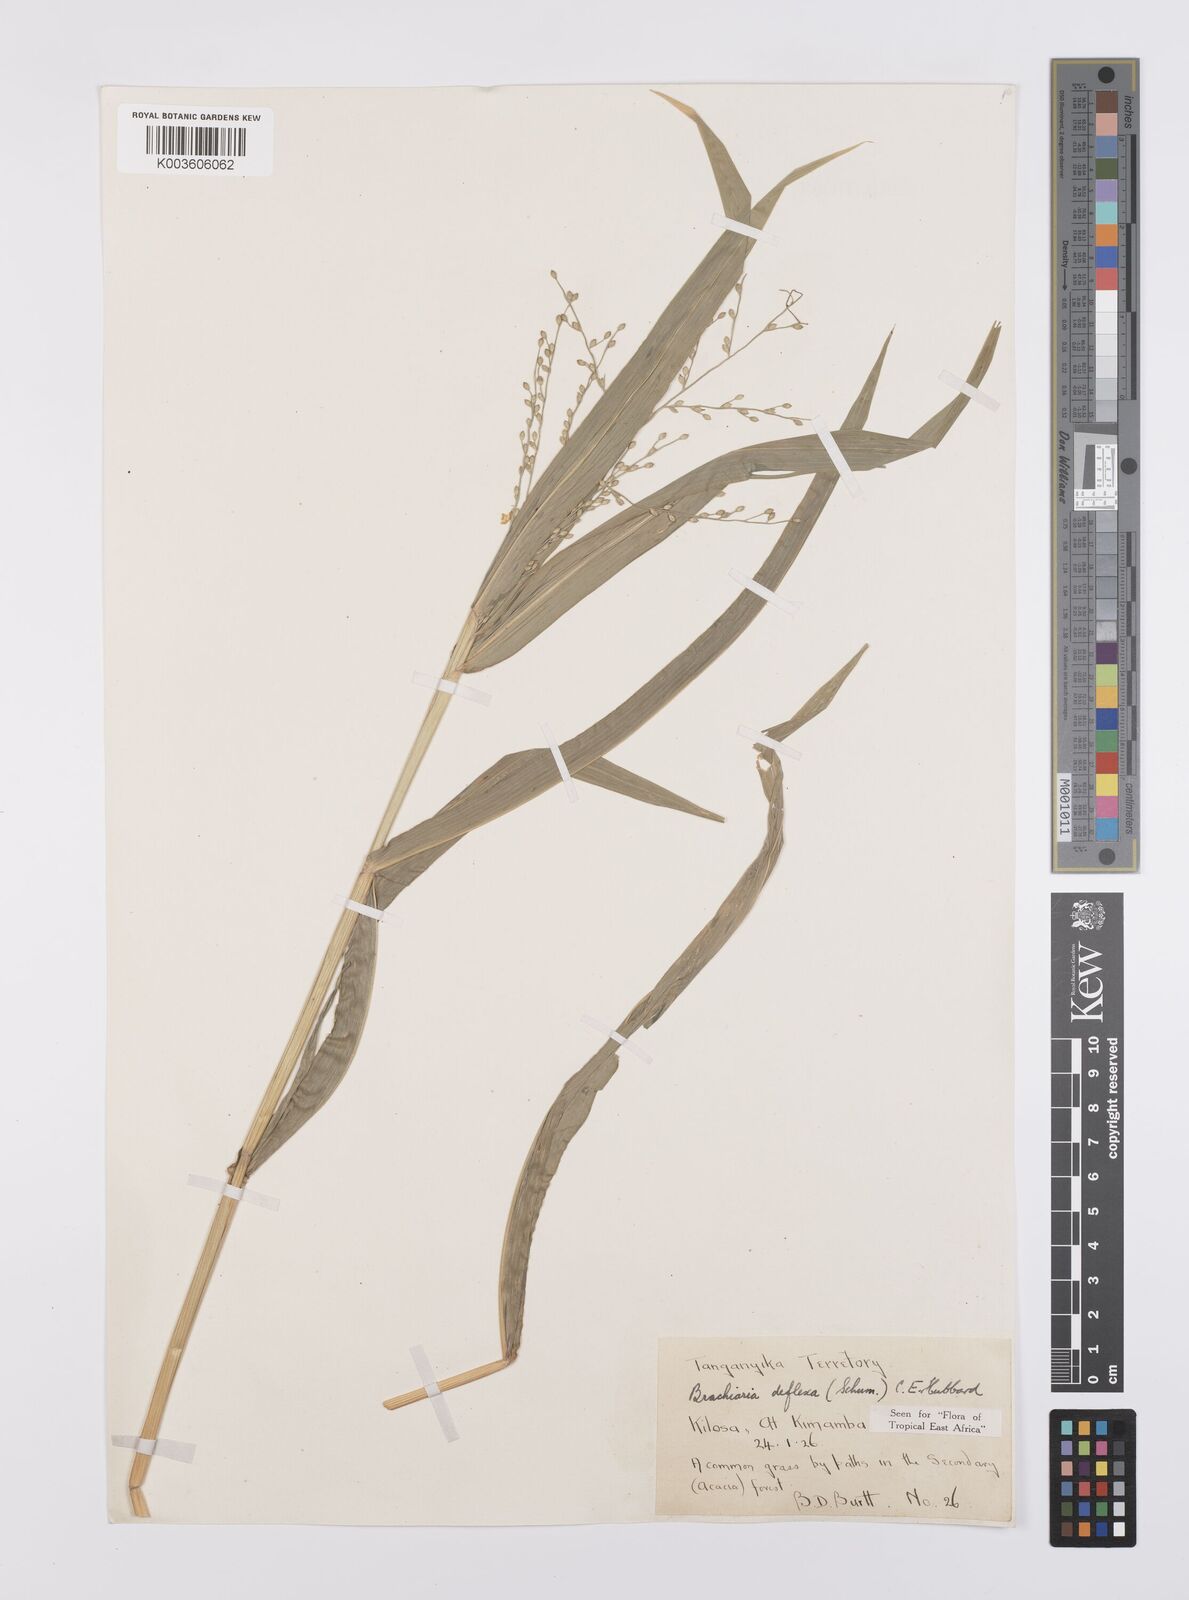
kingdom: Plantae
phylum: Tracheophyta
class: Liliopsida
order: Poales
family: Poaceae
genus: Urochloa
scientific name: Urochloa deflexa
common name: Guinea millet
